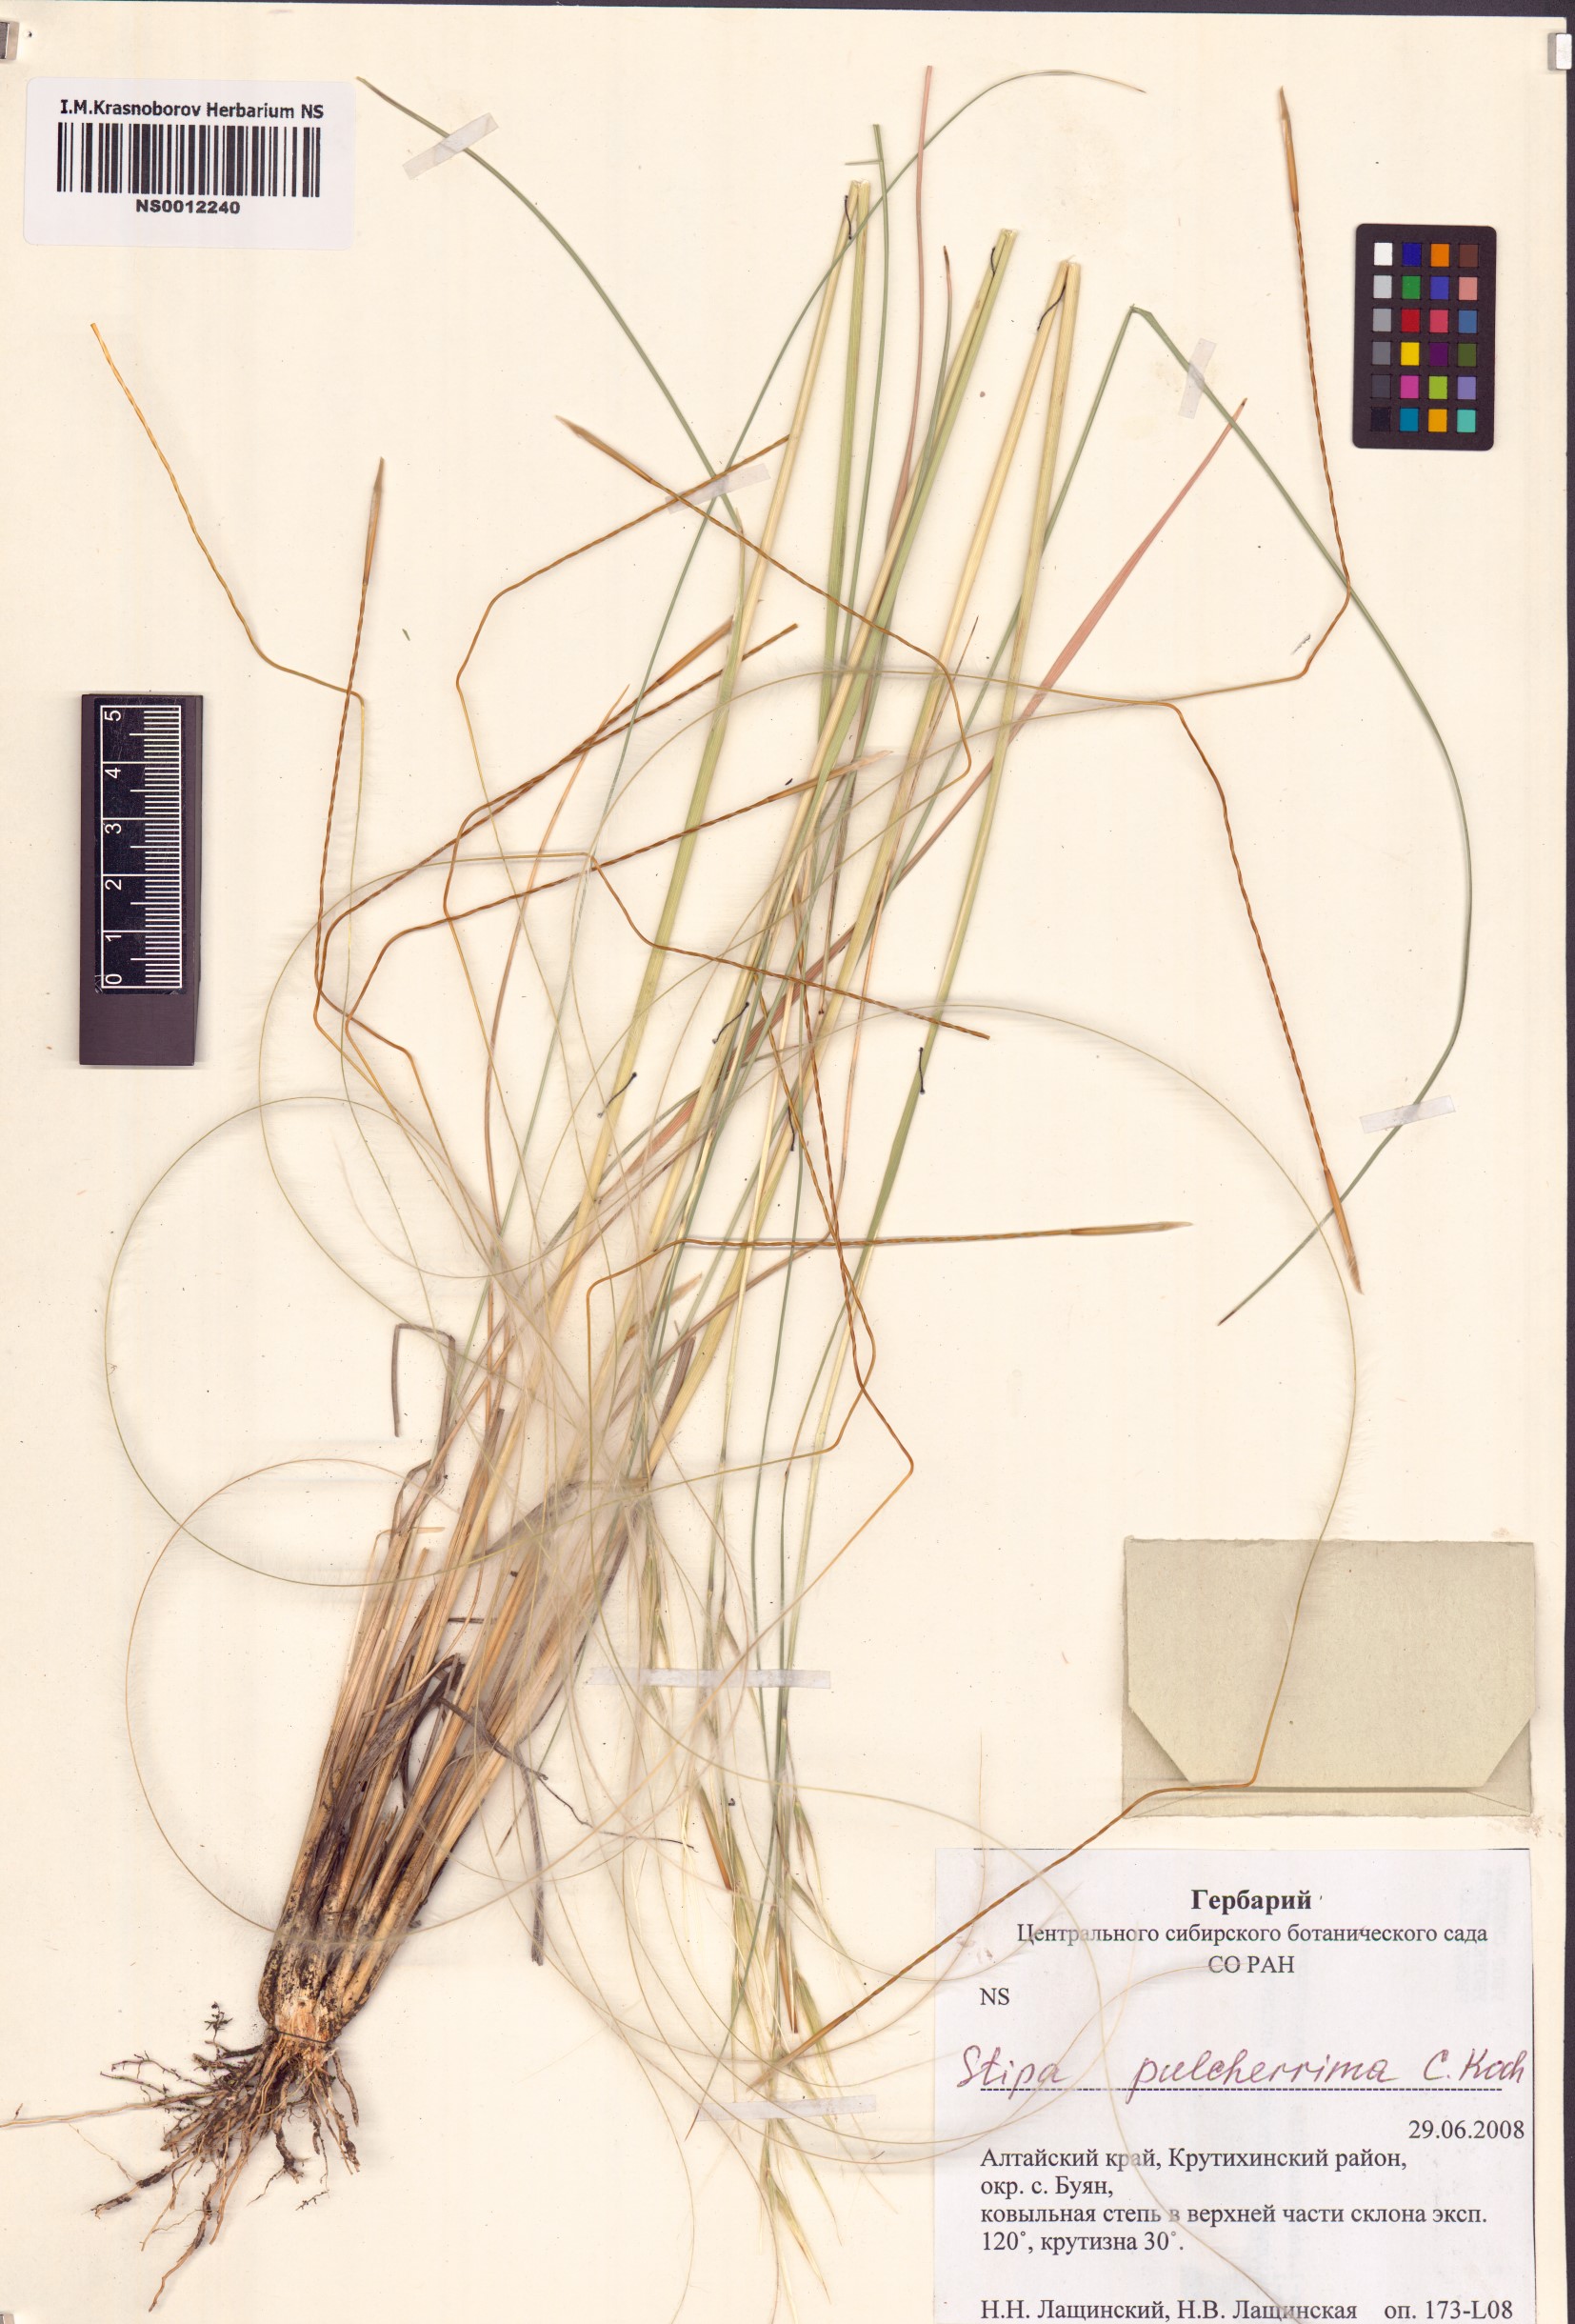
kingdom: Plantae
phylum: Tracheophyta
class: Liliopsida
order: Poales
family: Poaceae
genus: Stipa
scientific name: Stipa pulcherrima
